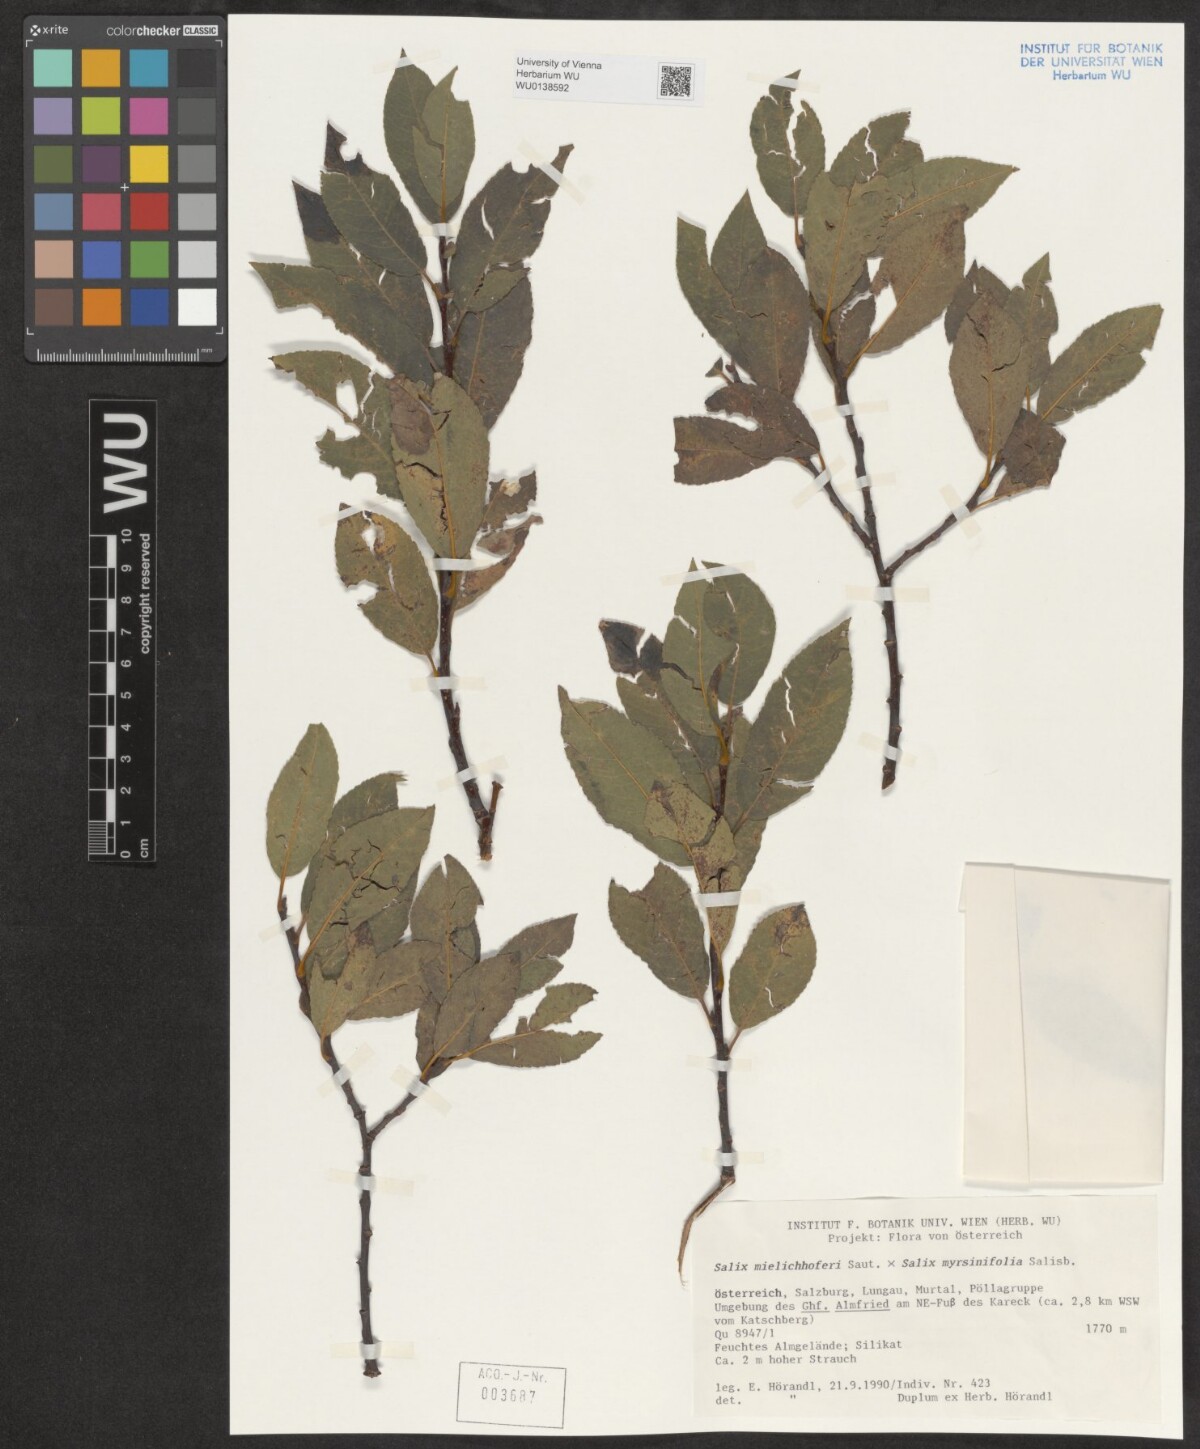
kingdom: Plantae
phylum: Tracheophyta
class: Magnoliopsida
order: Malpighiales
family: Salicaceae
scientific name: Salicaceae
